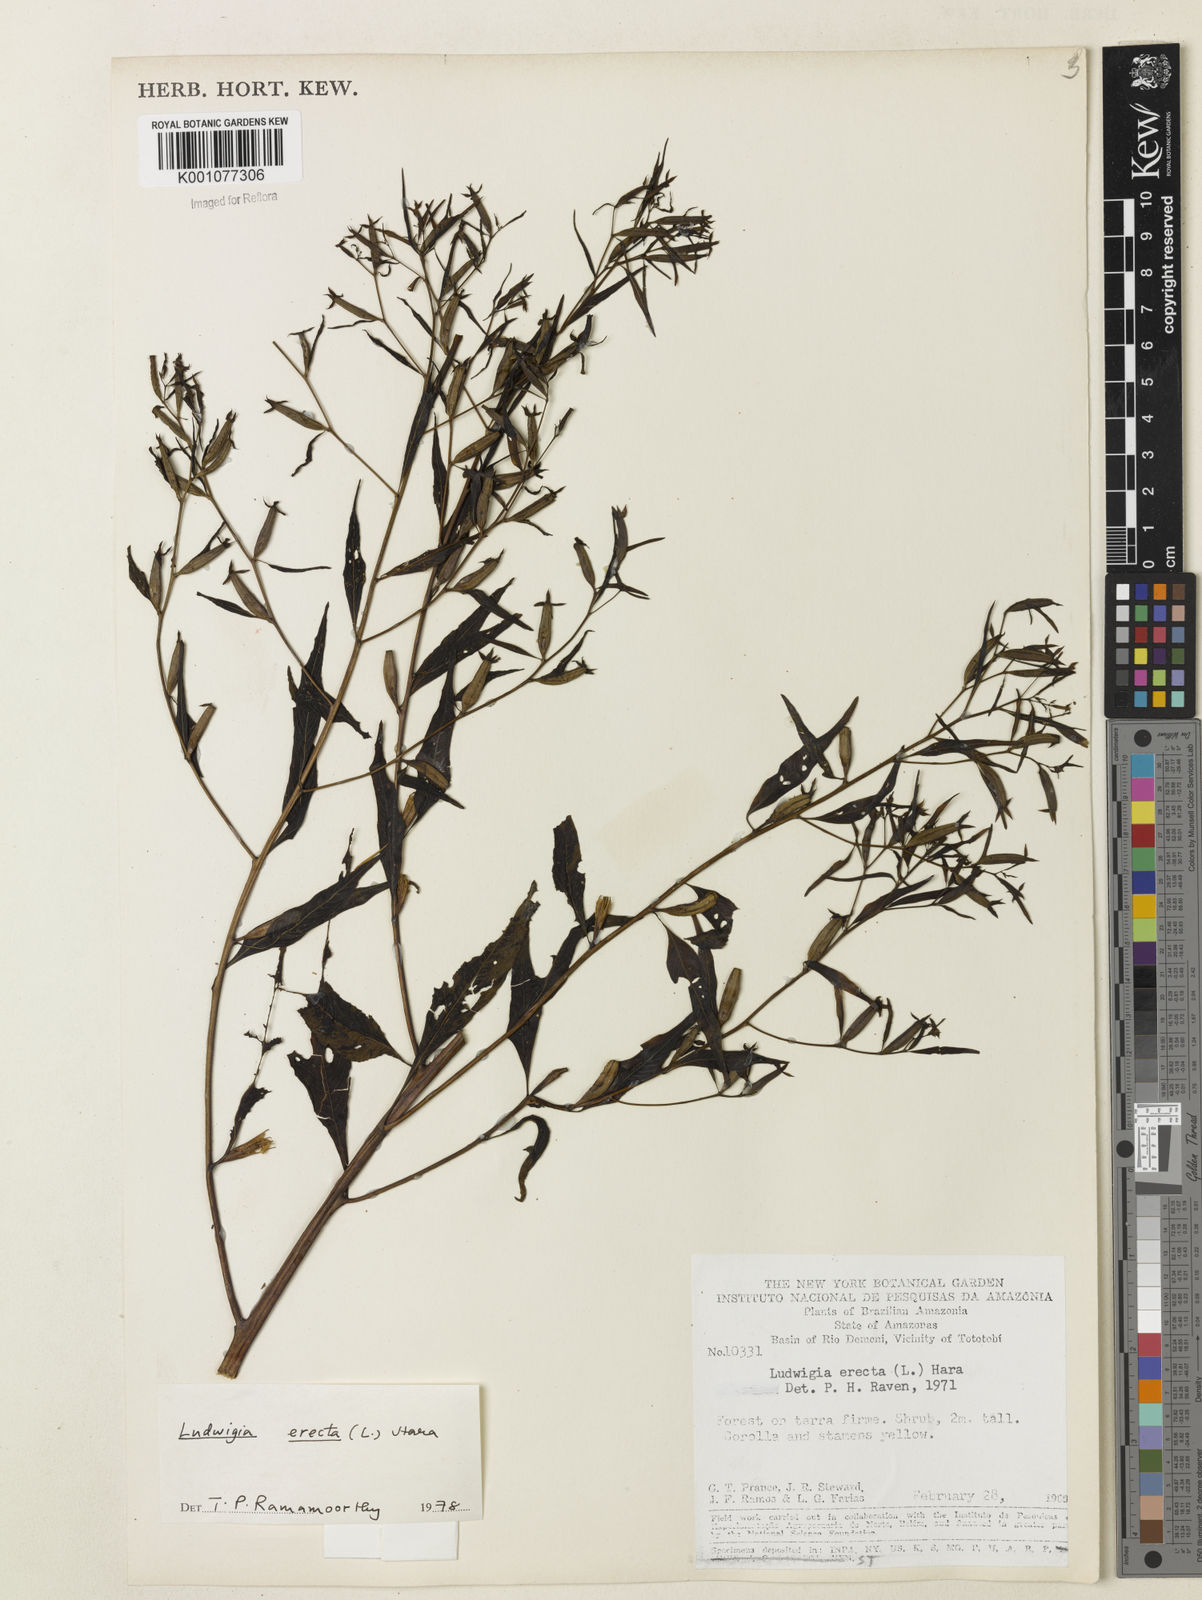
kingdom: Plantae
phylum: Tracheophyta
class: Magnoliopsida
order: Myrtales
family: Onagraceae
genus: Ludwigia
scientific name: Ludwigia erecta
